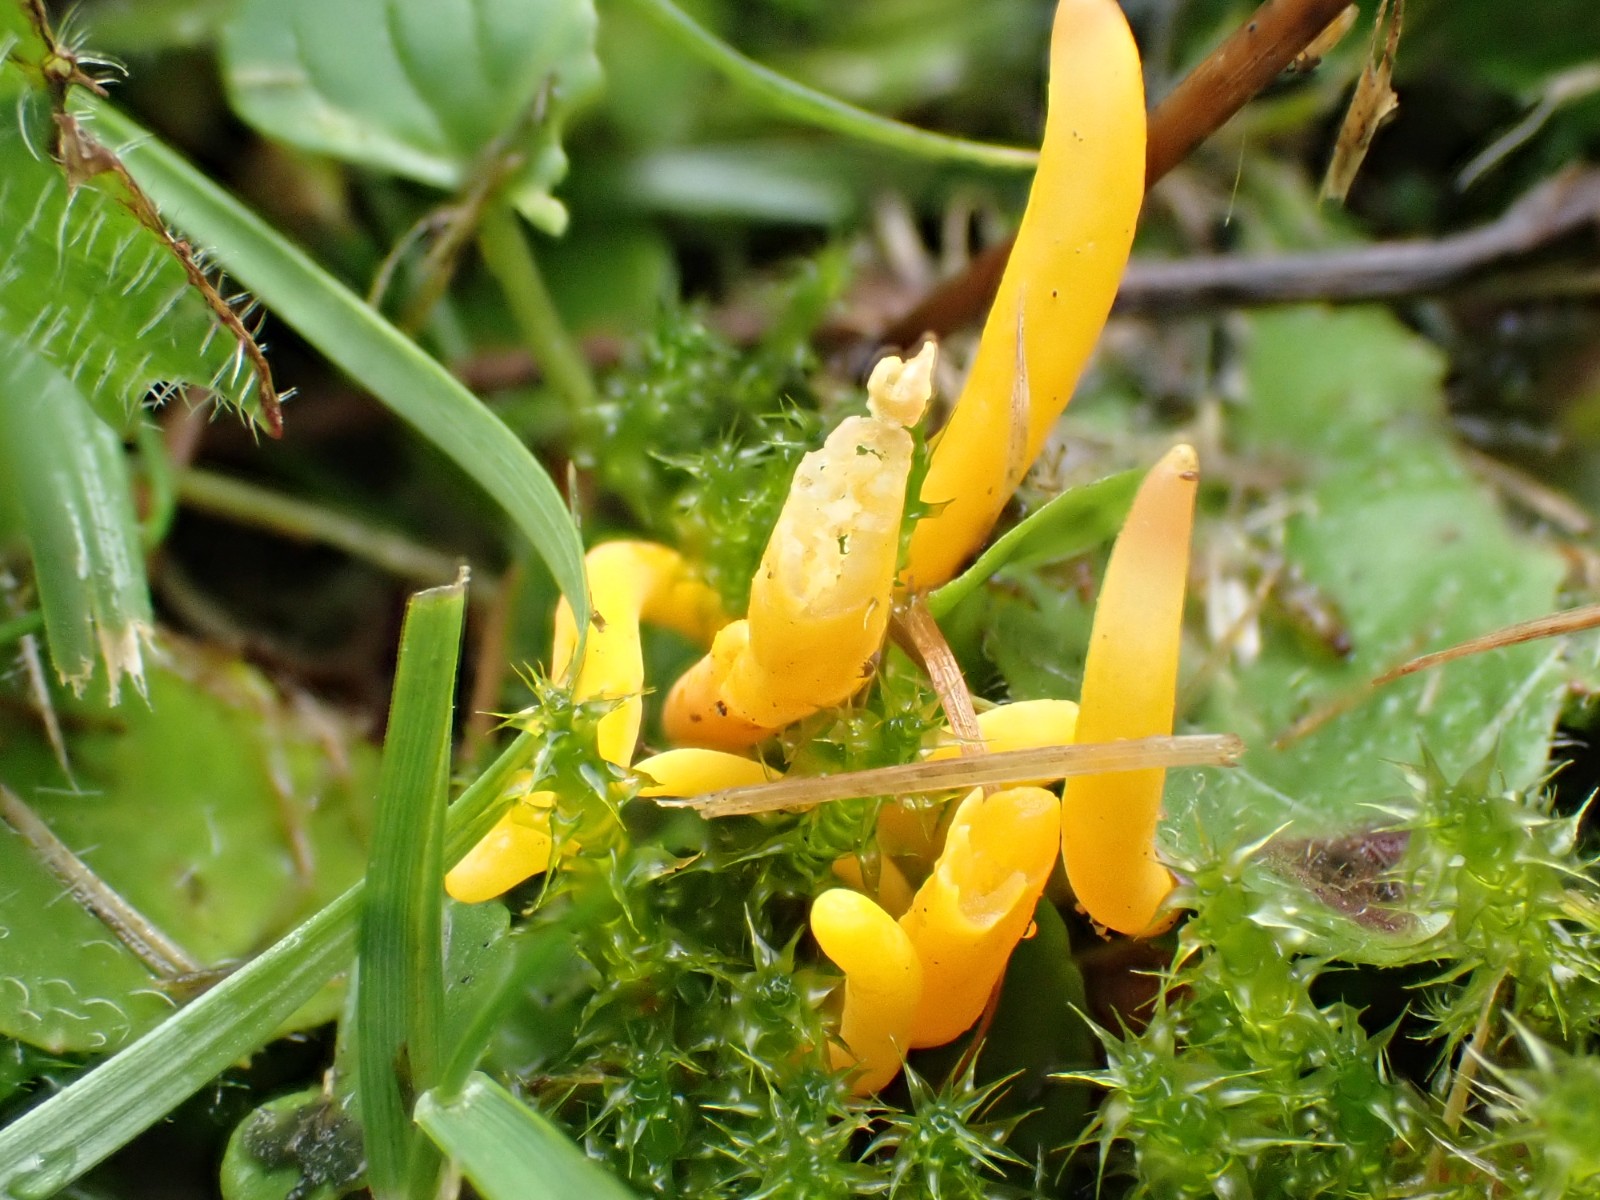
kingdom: Fungi
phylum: Basidiomycota
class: Agaricomycetes
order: Agaricales
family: Clavariaceae
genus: Clavulinopsis
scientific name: Clavulinopsis
